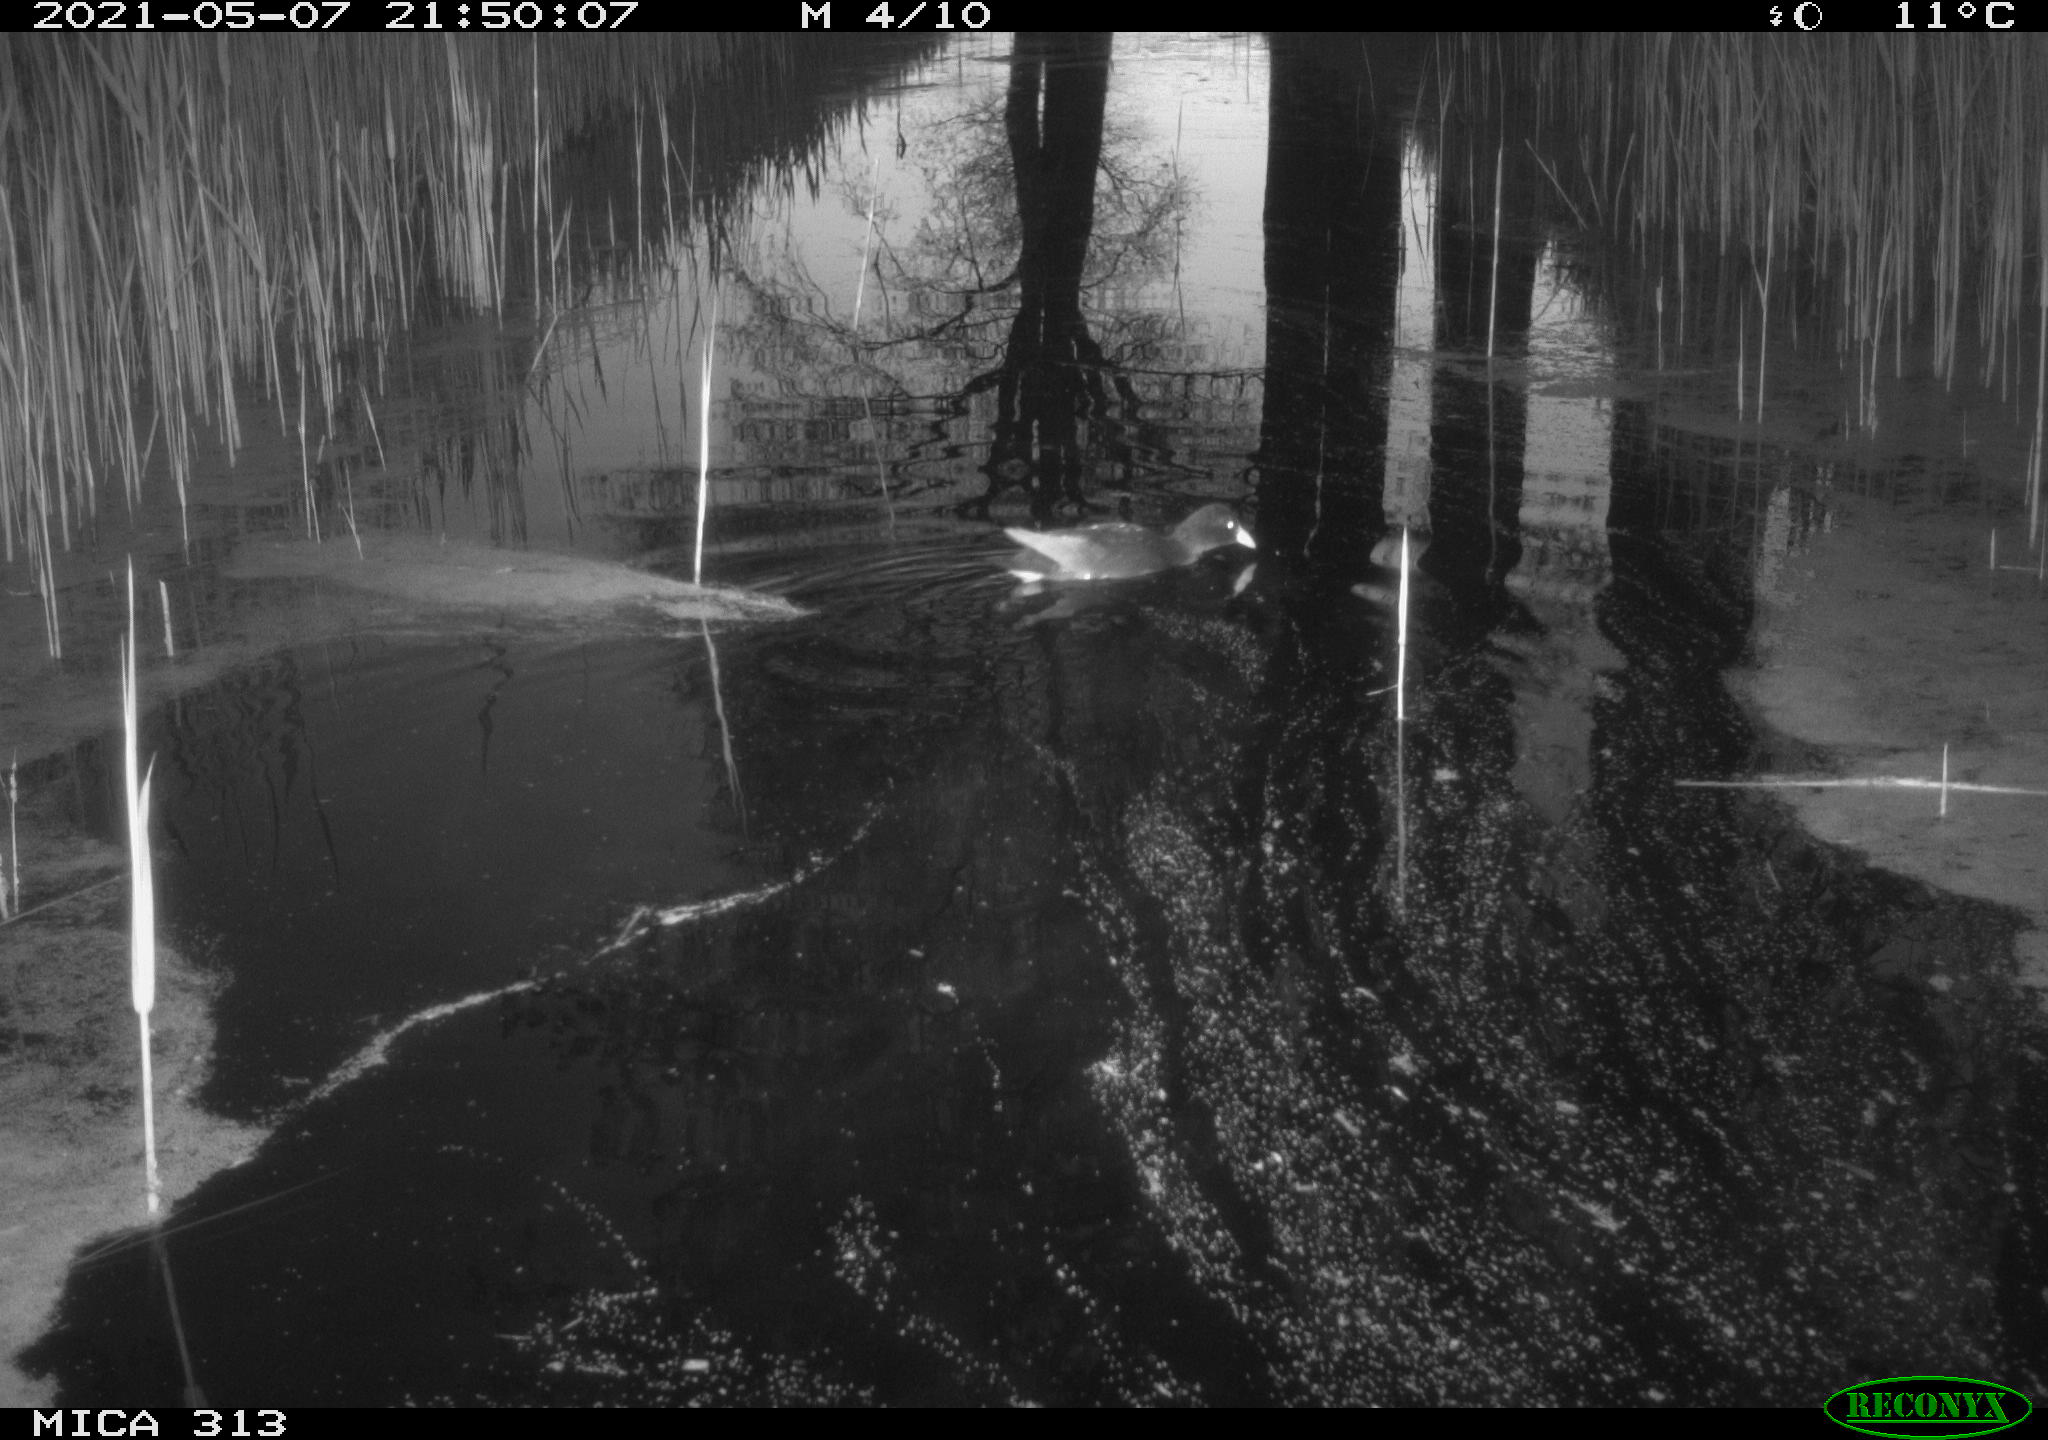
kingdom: Animalia
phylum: Chordata
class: Aves
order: Gruiformes
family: Rallidae
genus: Gallinula
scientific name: Gallinula chloropus
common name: Common moorhen
